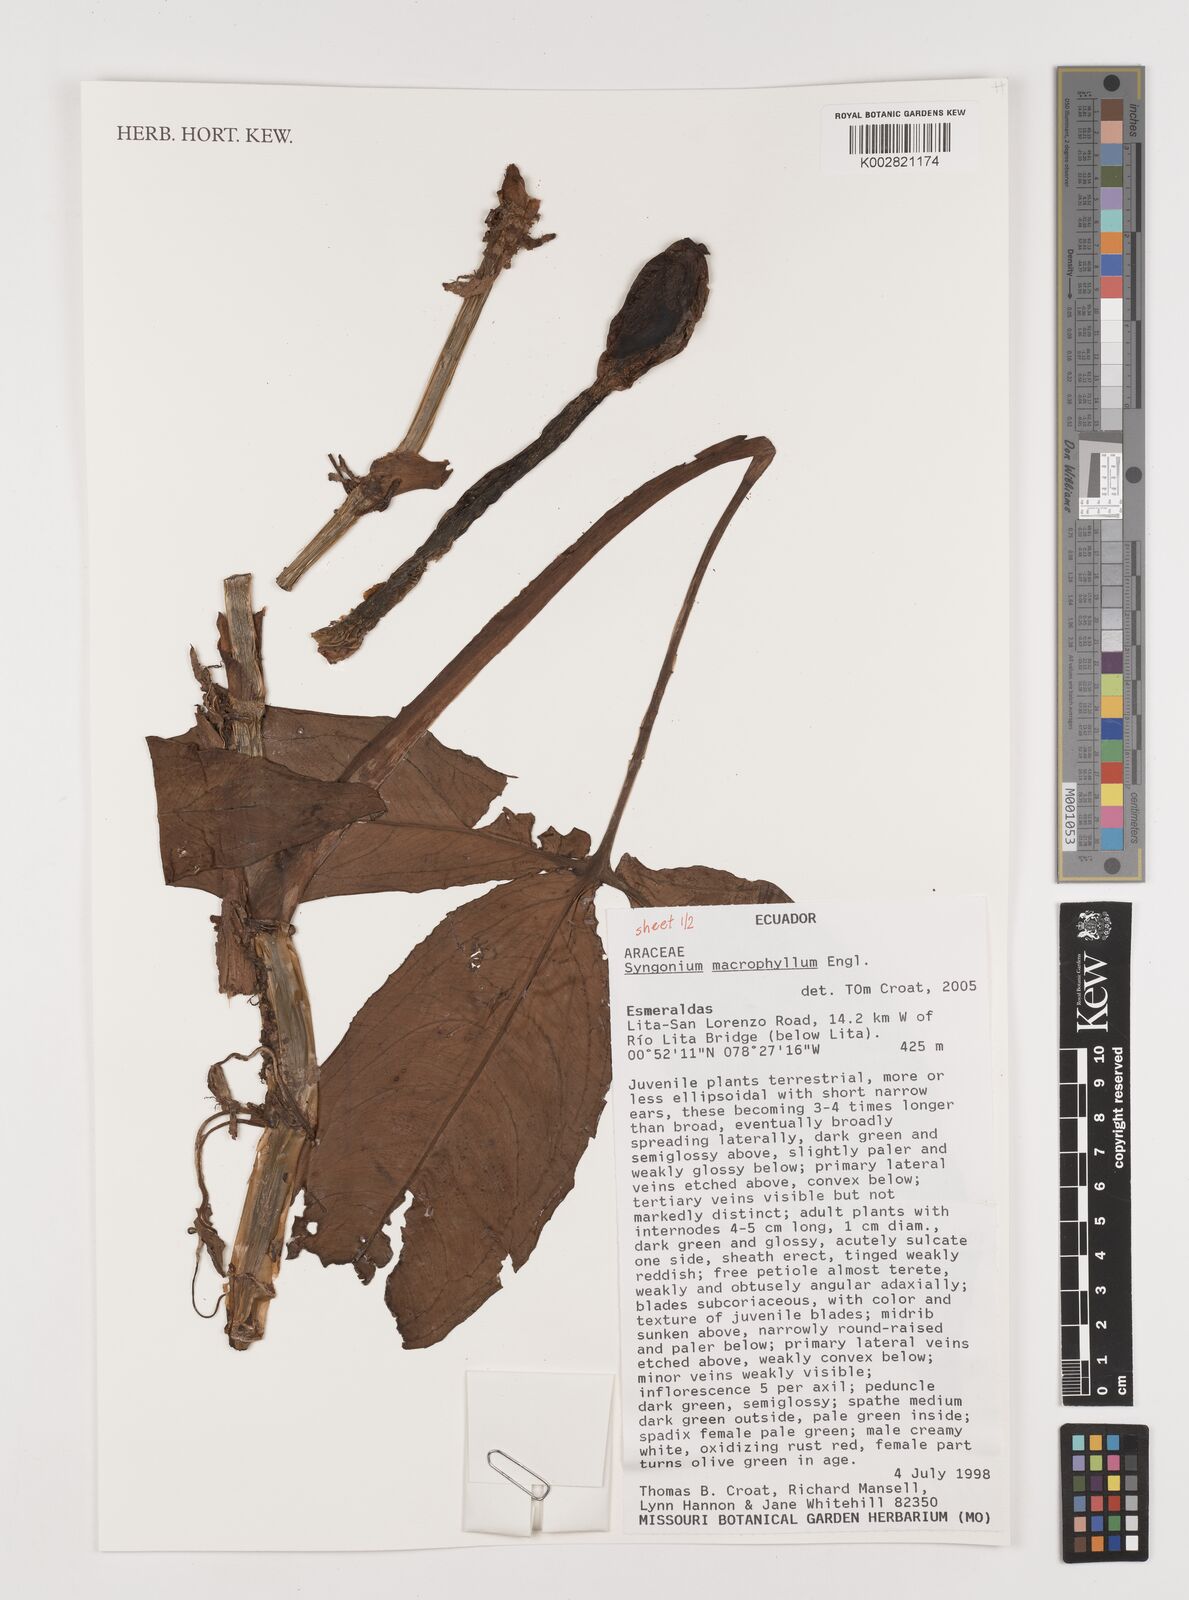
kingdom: Plantae
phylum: Tracheophyta
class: Liliopsida
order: Alismatales
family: Araceae
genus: Syngonium
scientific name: Syngonium macrophyllum
